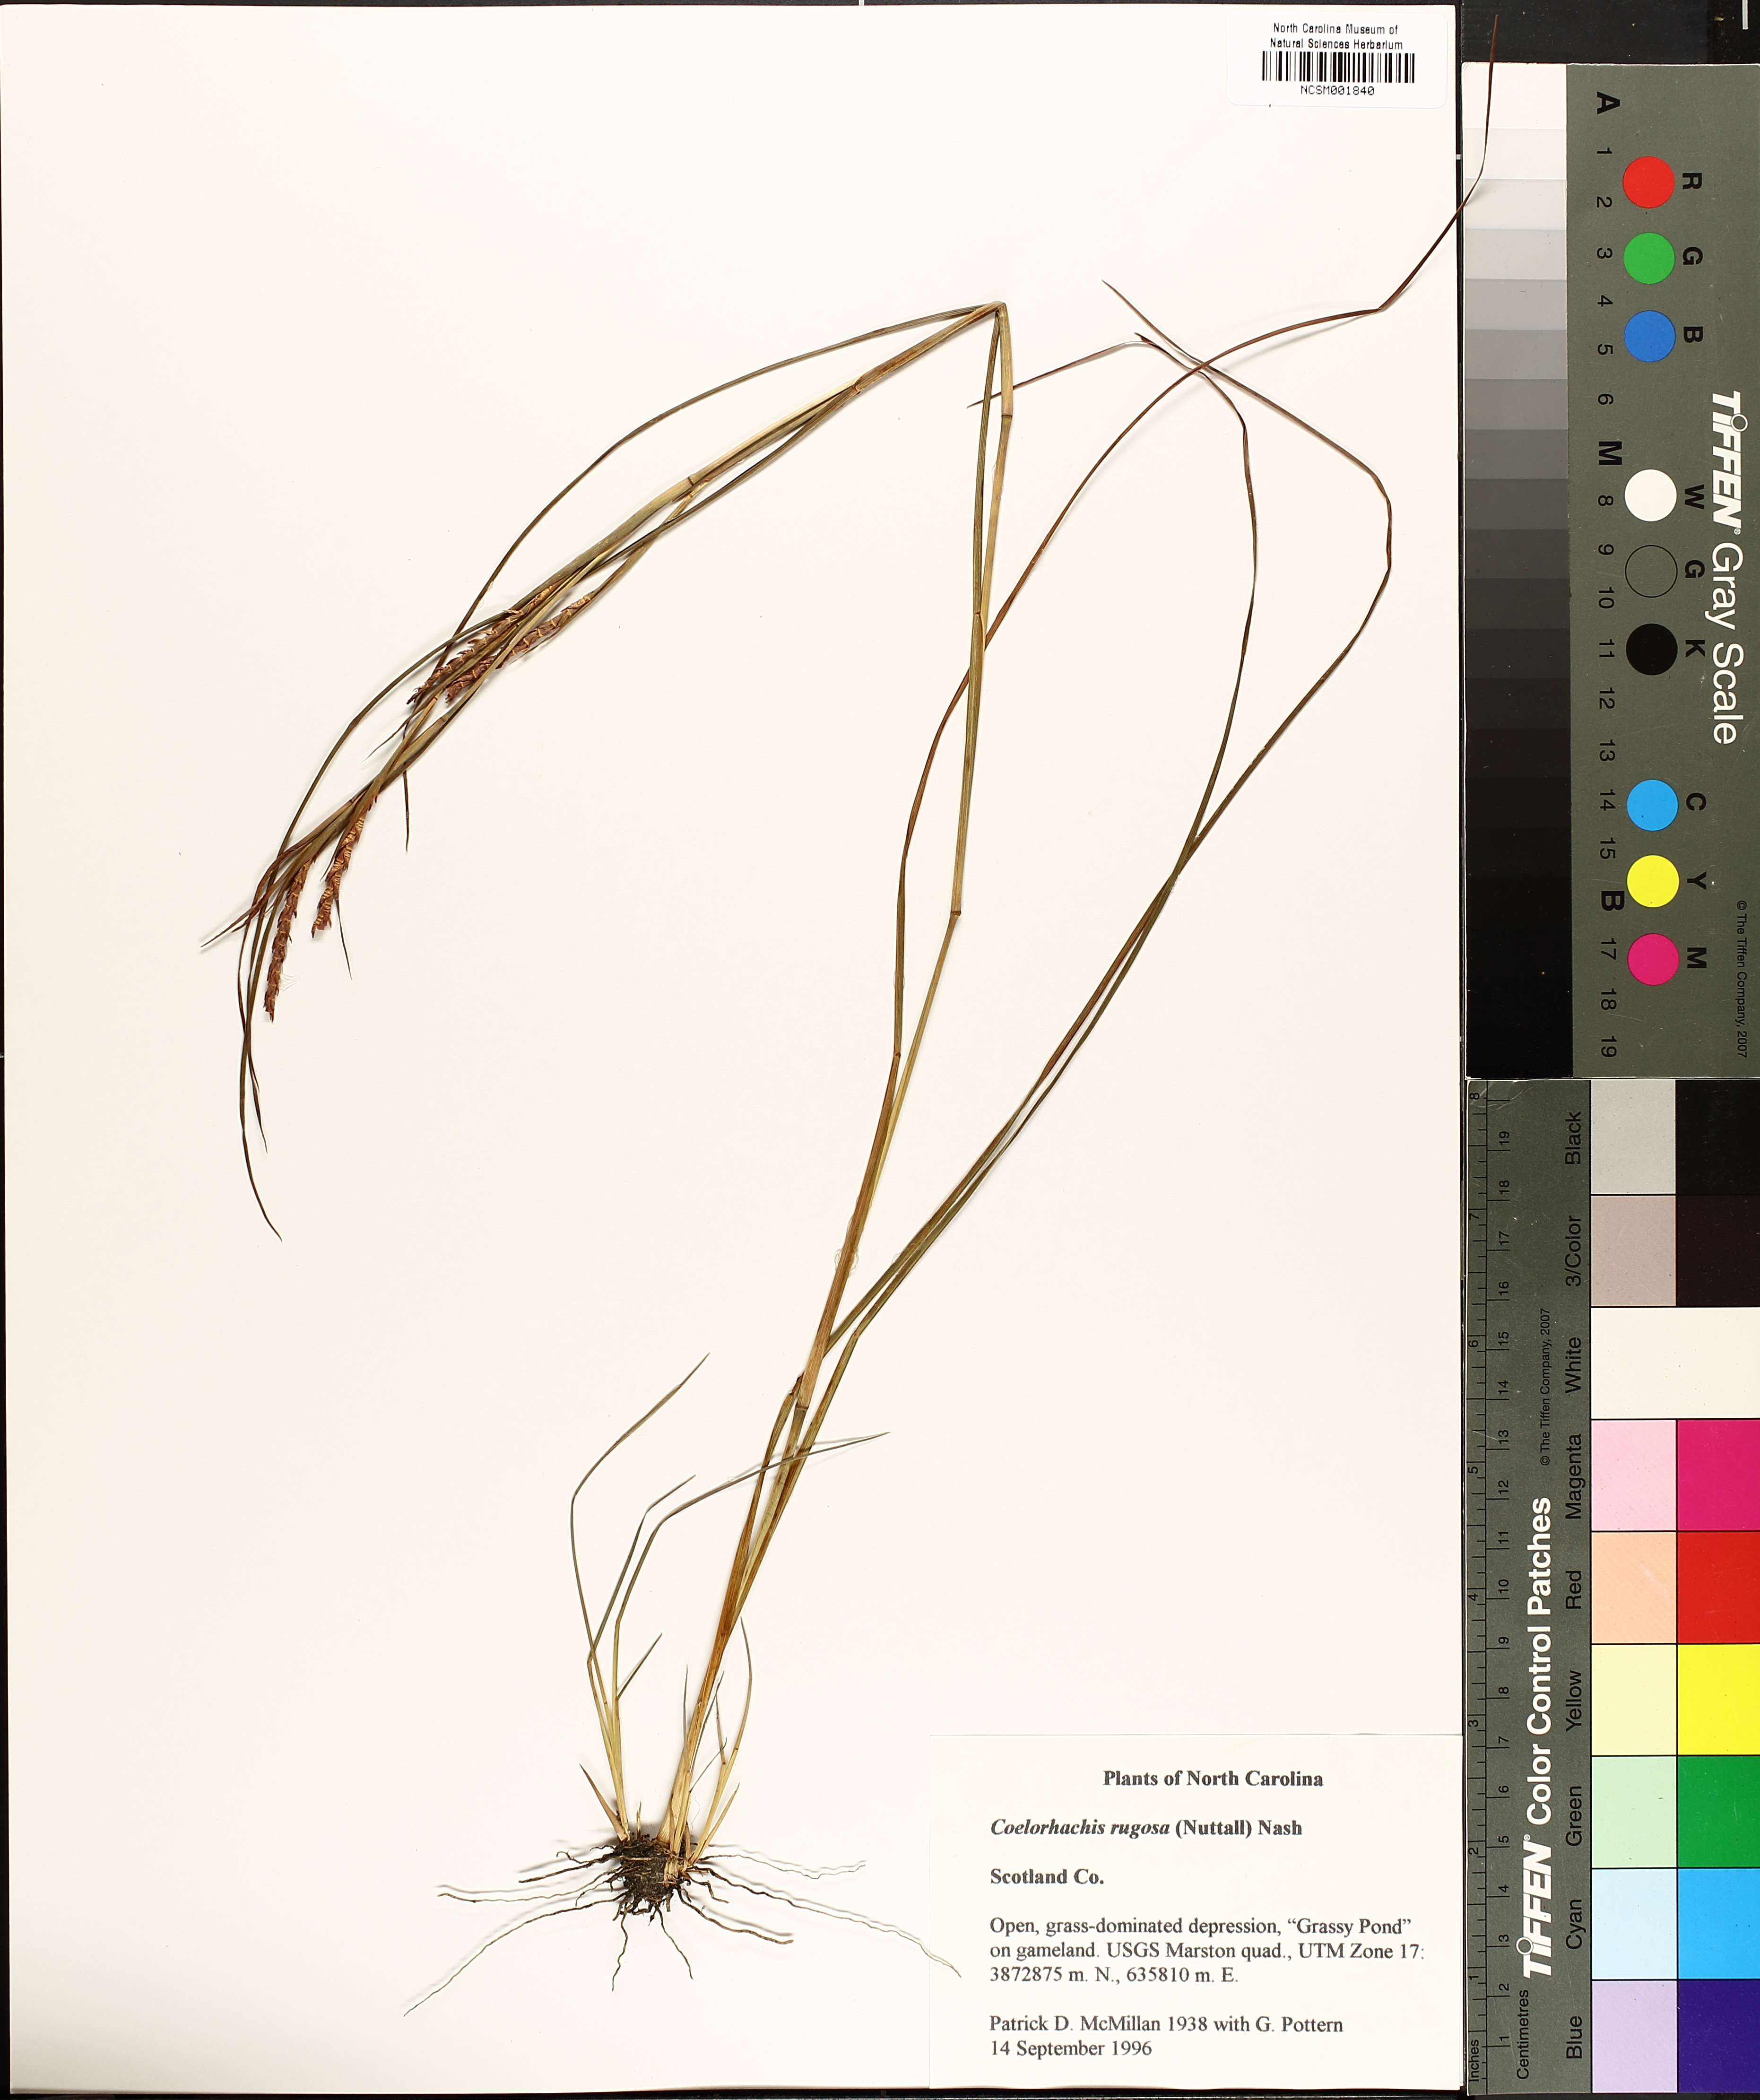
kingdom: Plantae
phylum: Tracheophyta
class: Liliopsida
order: Poales
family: Poaceae
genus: Rottboellia
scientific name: Rottboellia rugosa
